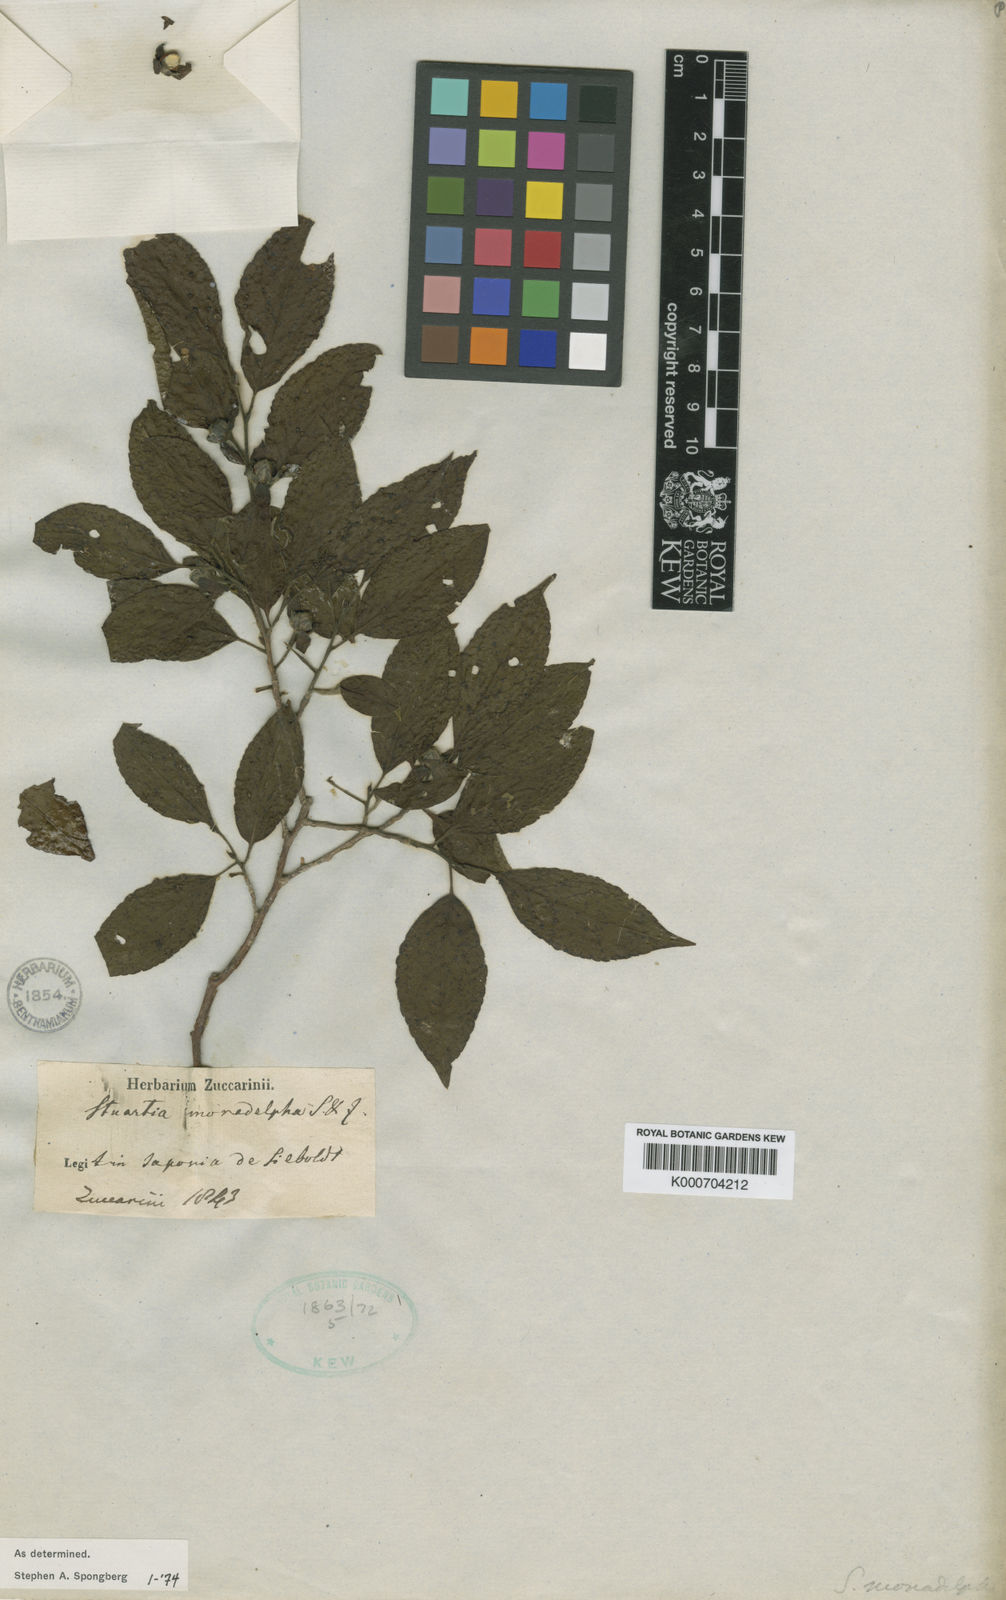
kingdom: Plantae
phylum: Tracheophyta
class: Magnoliopsida
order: Ericales
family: Theaceae
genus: Stewartia
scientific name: Stewartia monadelpha
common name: Tall stewartia
